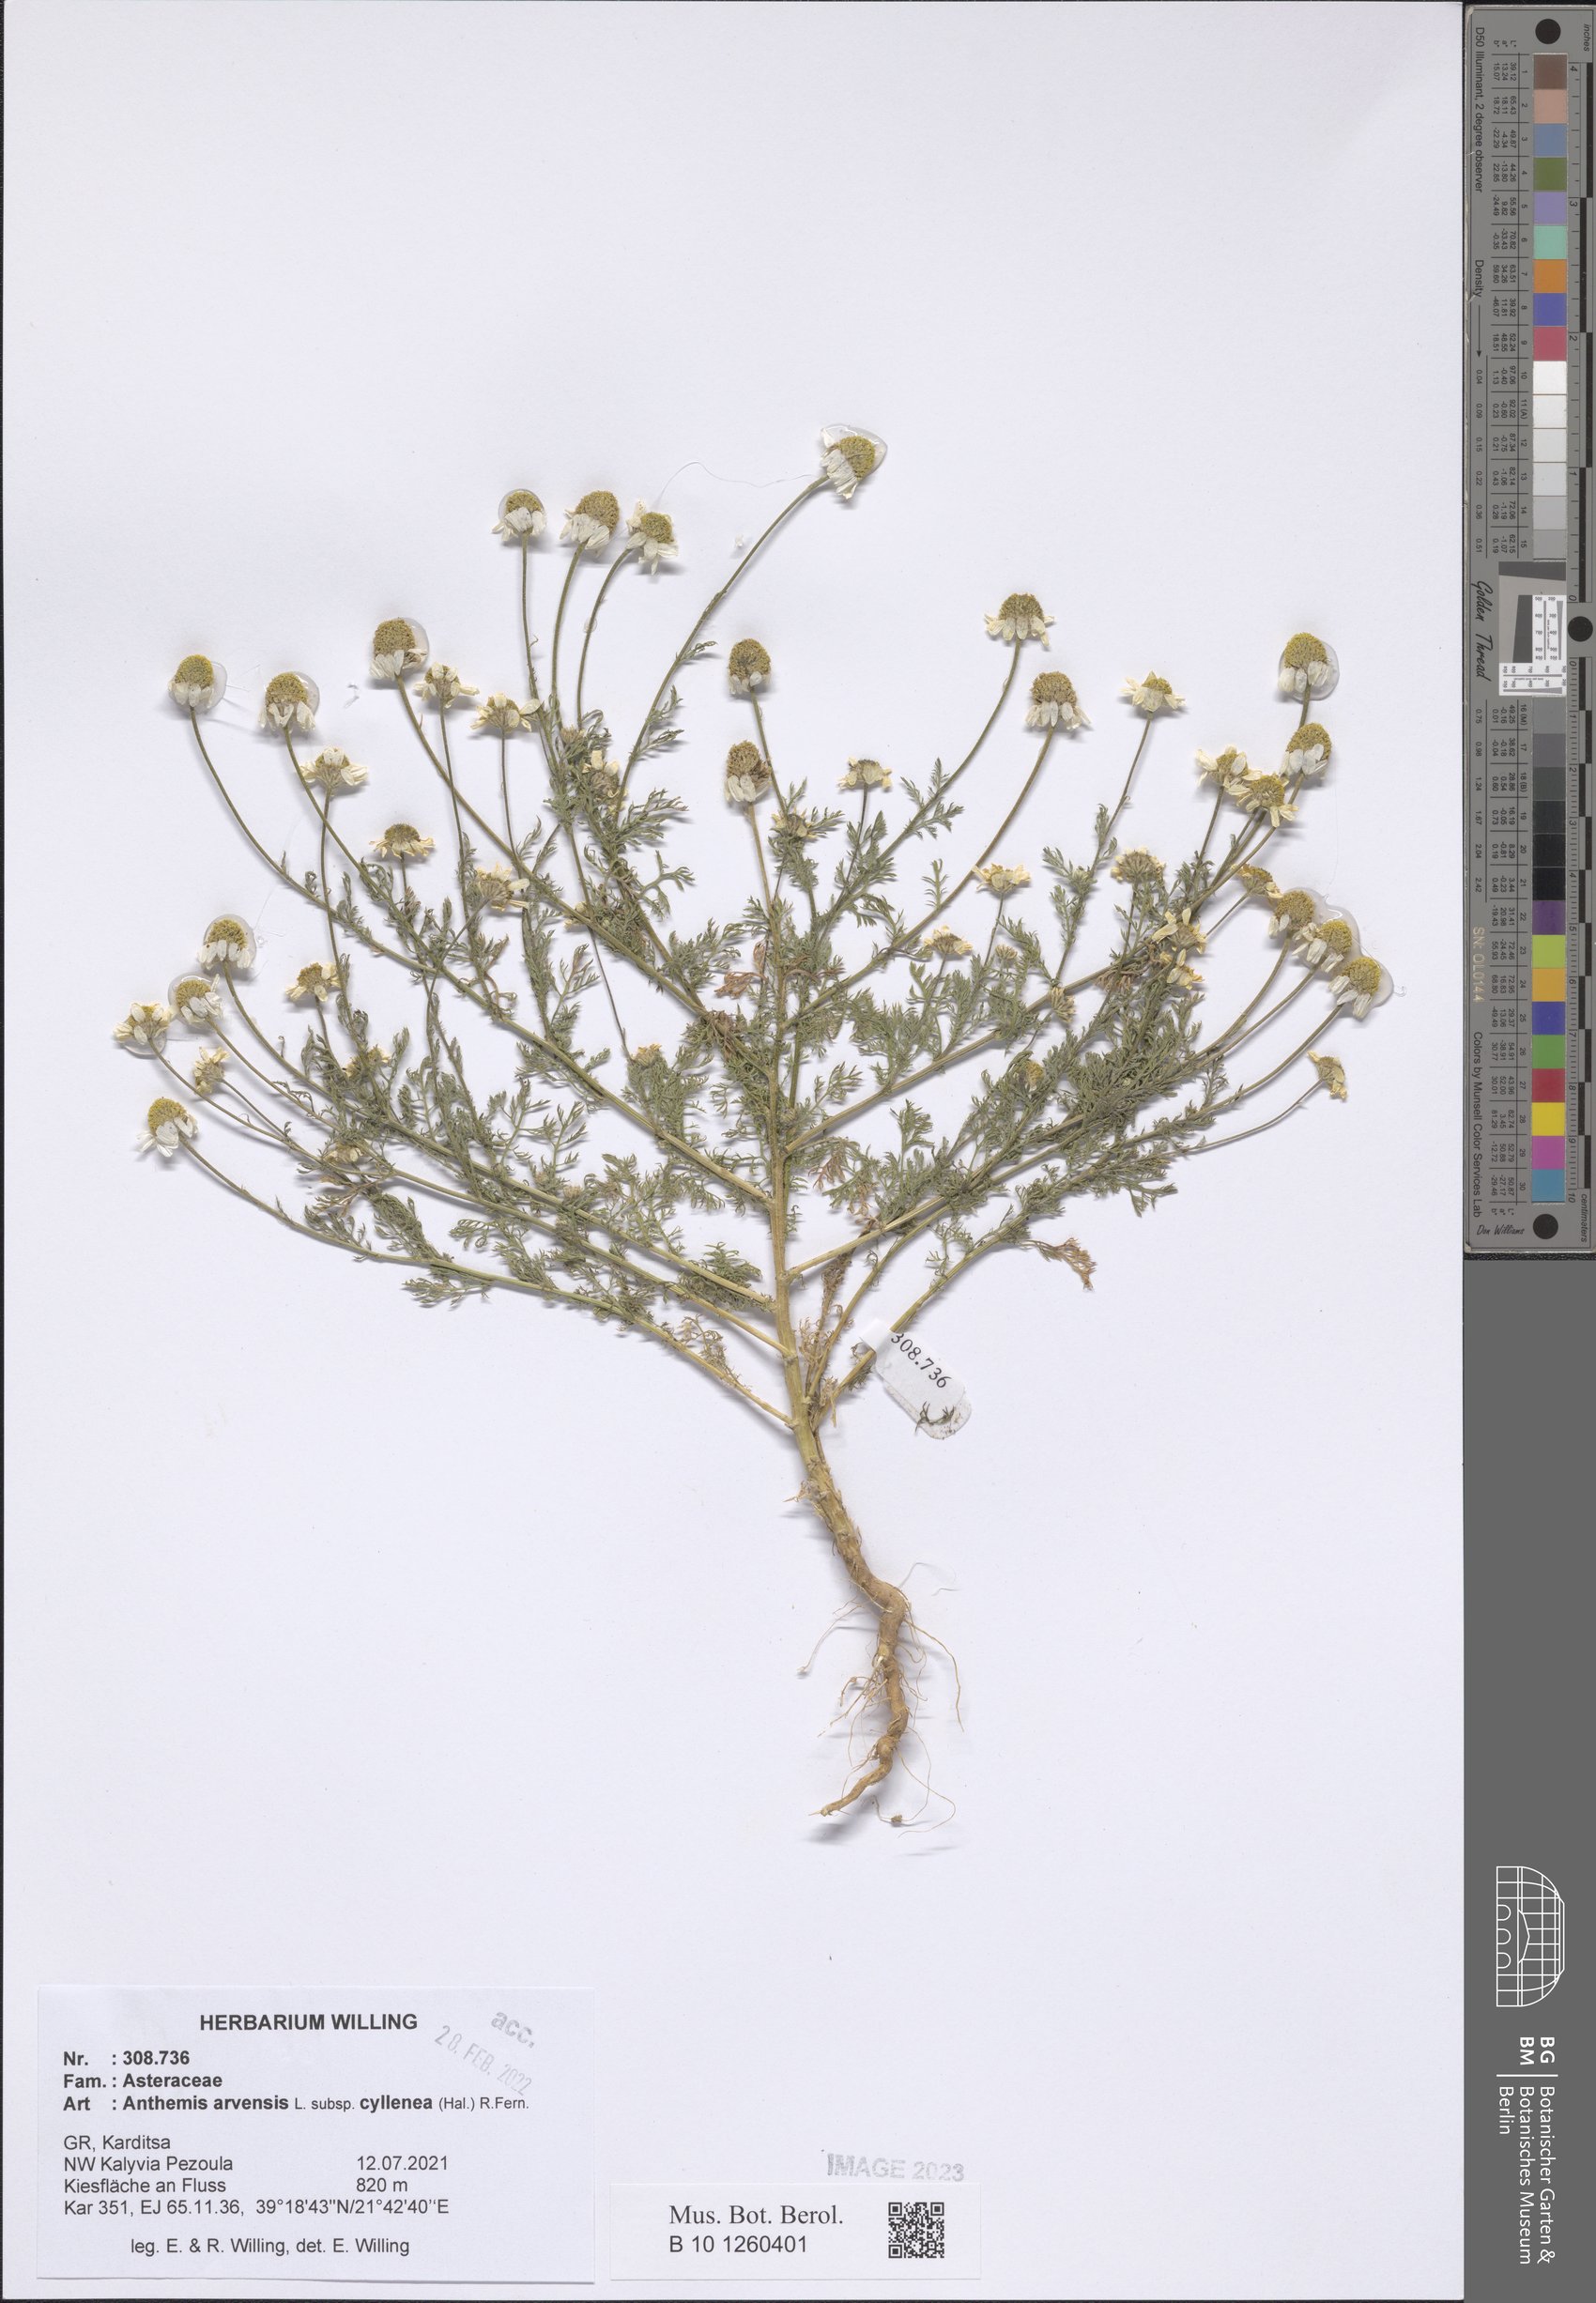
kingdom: Plantae
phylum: Tracheophyta
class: Magnoliopsida
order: Asterales
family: Asteraceae
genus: Anthemis
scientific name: Anthemis arvensis
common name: Corn chamomile
